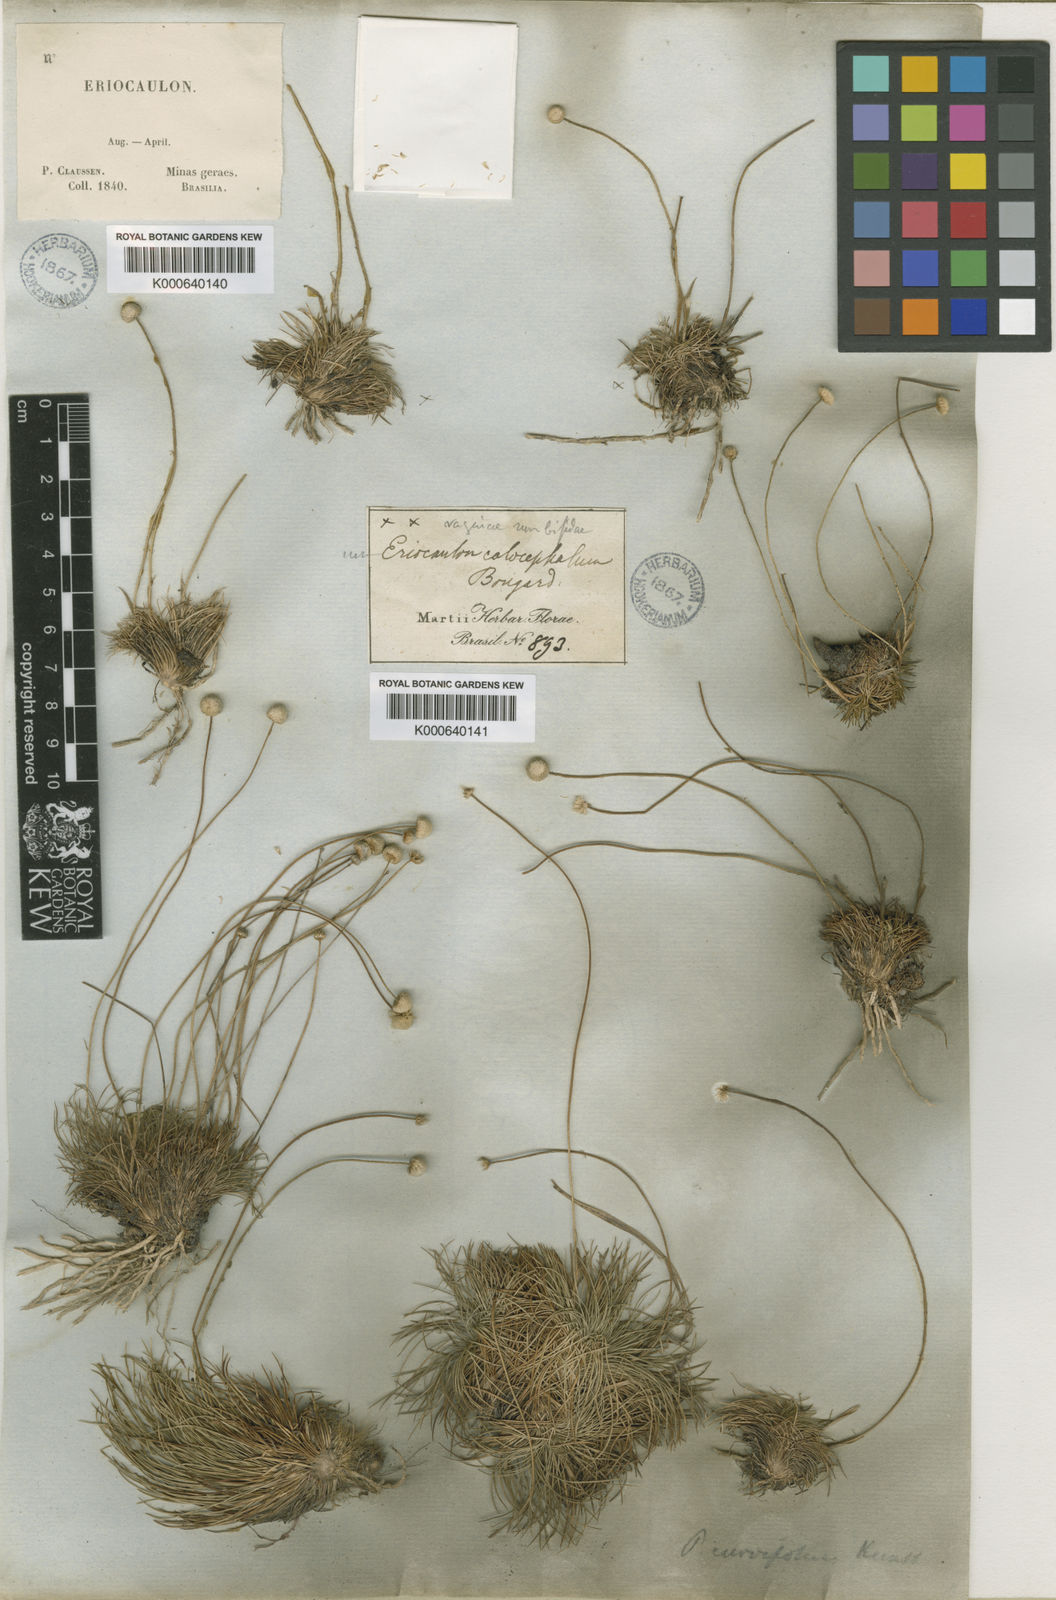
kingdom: Plantae
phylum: Tracheophyta
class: Liliopsida
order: Poales
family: Eriocaulaceae
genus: Leiothrix
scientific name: Leiothrix curvifolia
